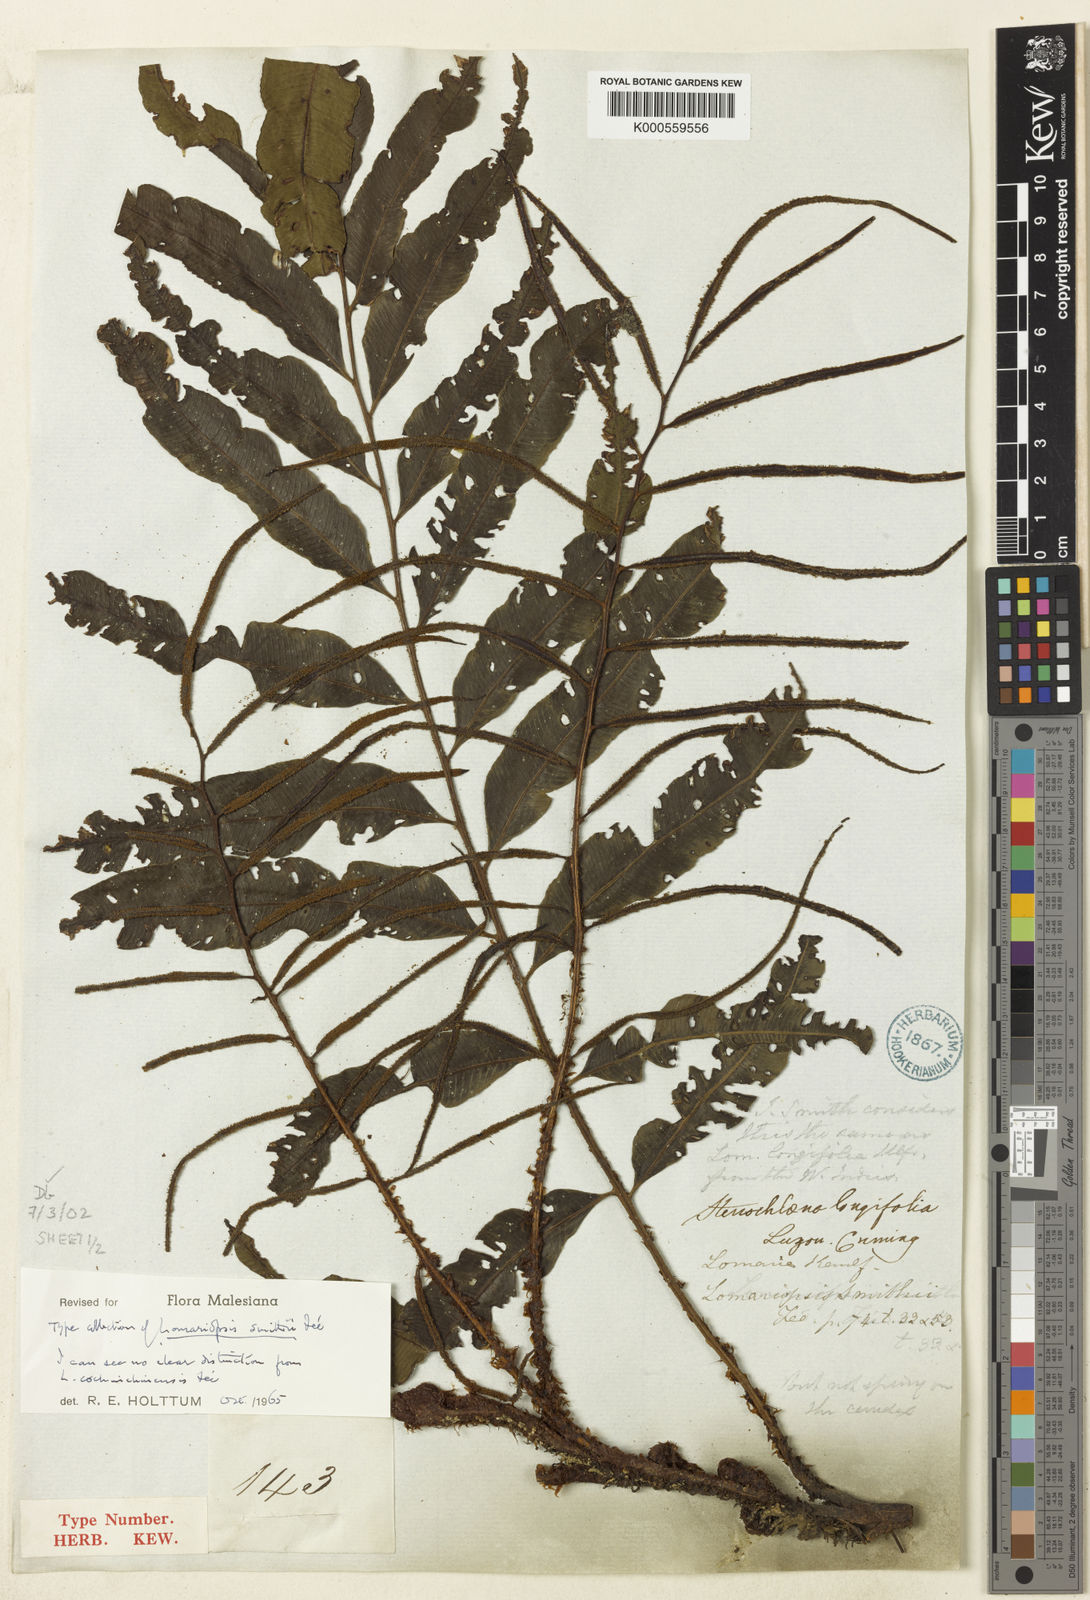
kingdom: Plantae
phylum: Tracheophyta
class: Polypodiopsida
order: Polypodiales
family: Lomariopsidaceae
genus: Lomariopsis
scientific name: Lomariopsis
